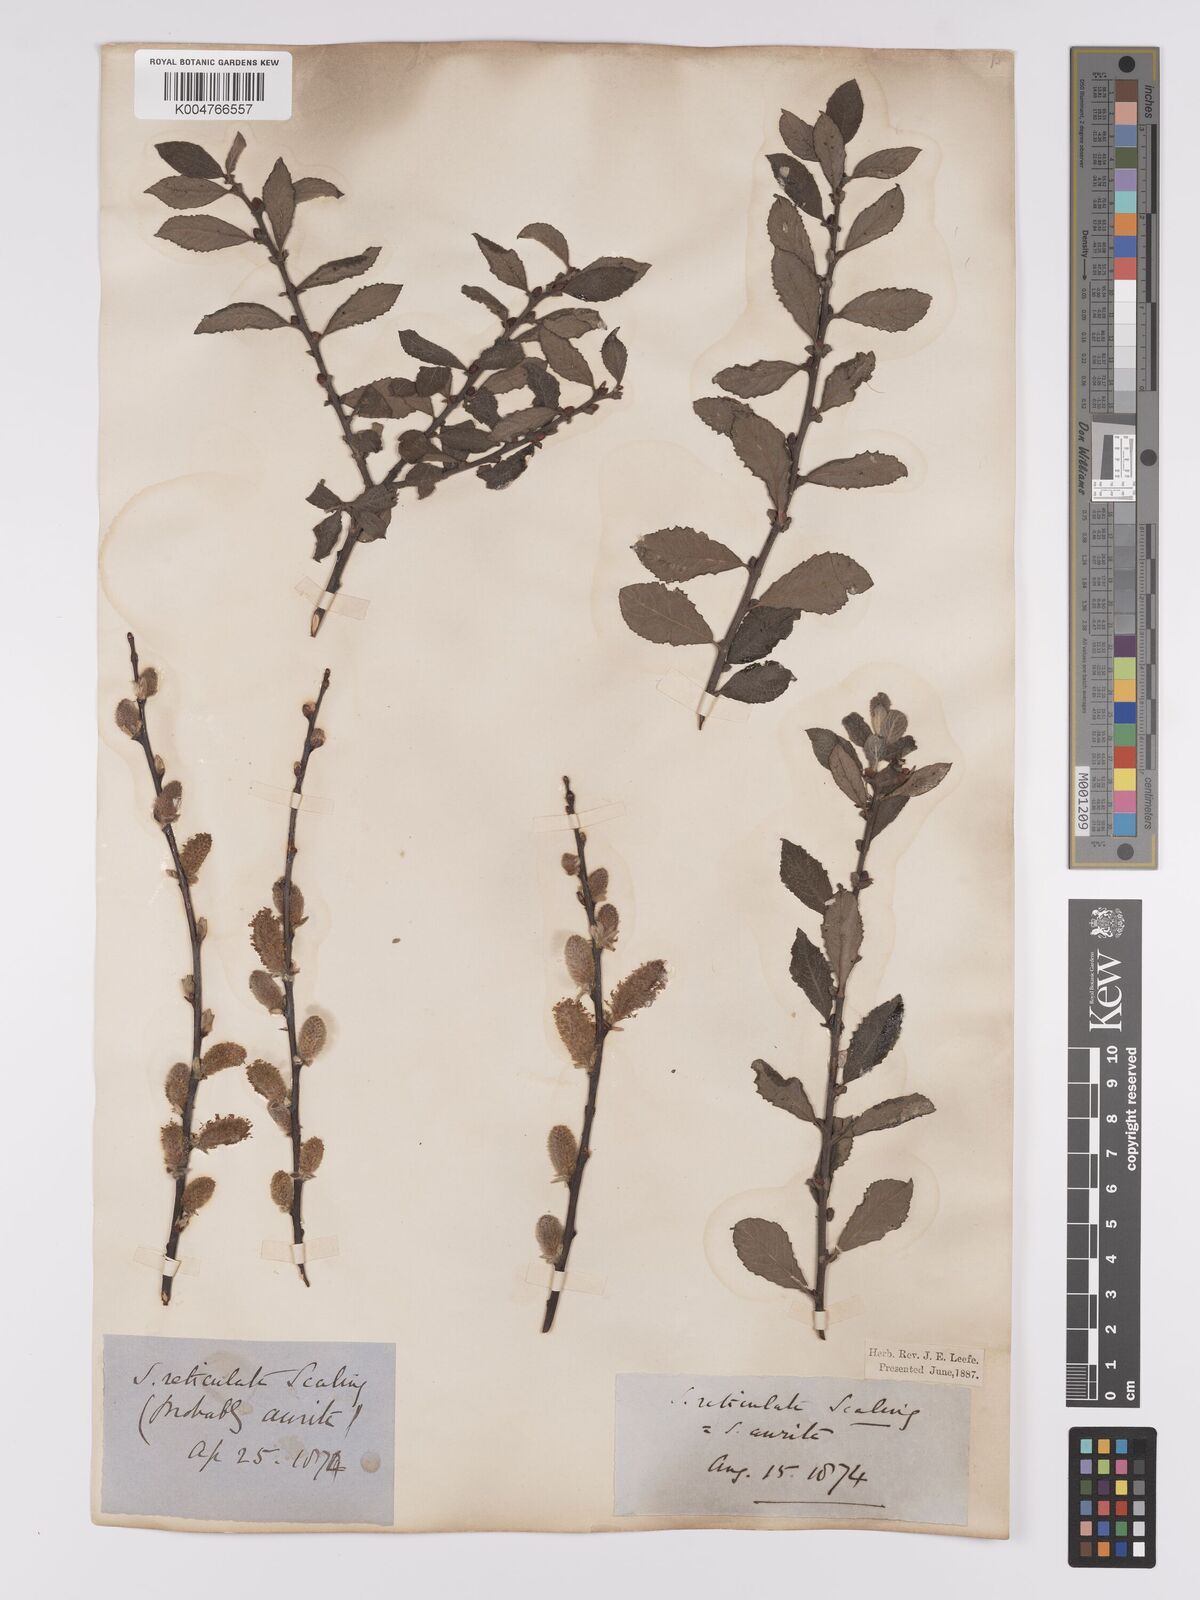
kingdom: Plantae
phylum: Tracheophyta
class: Magnoliopsida
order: Malpighiales
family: Salicaceae
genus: Salix
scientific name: Salix
